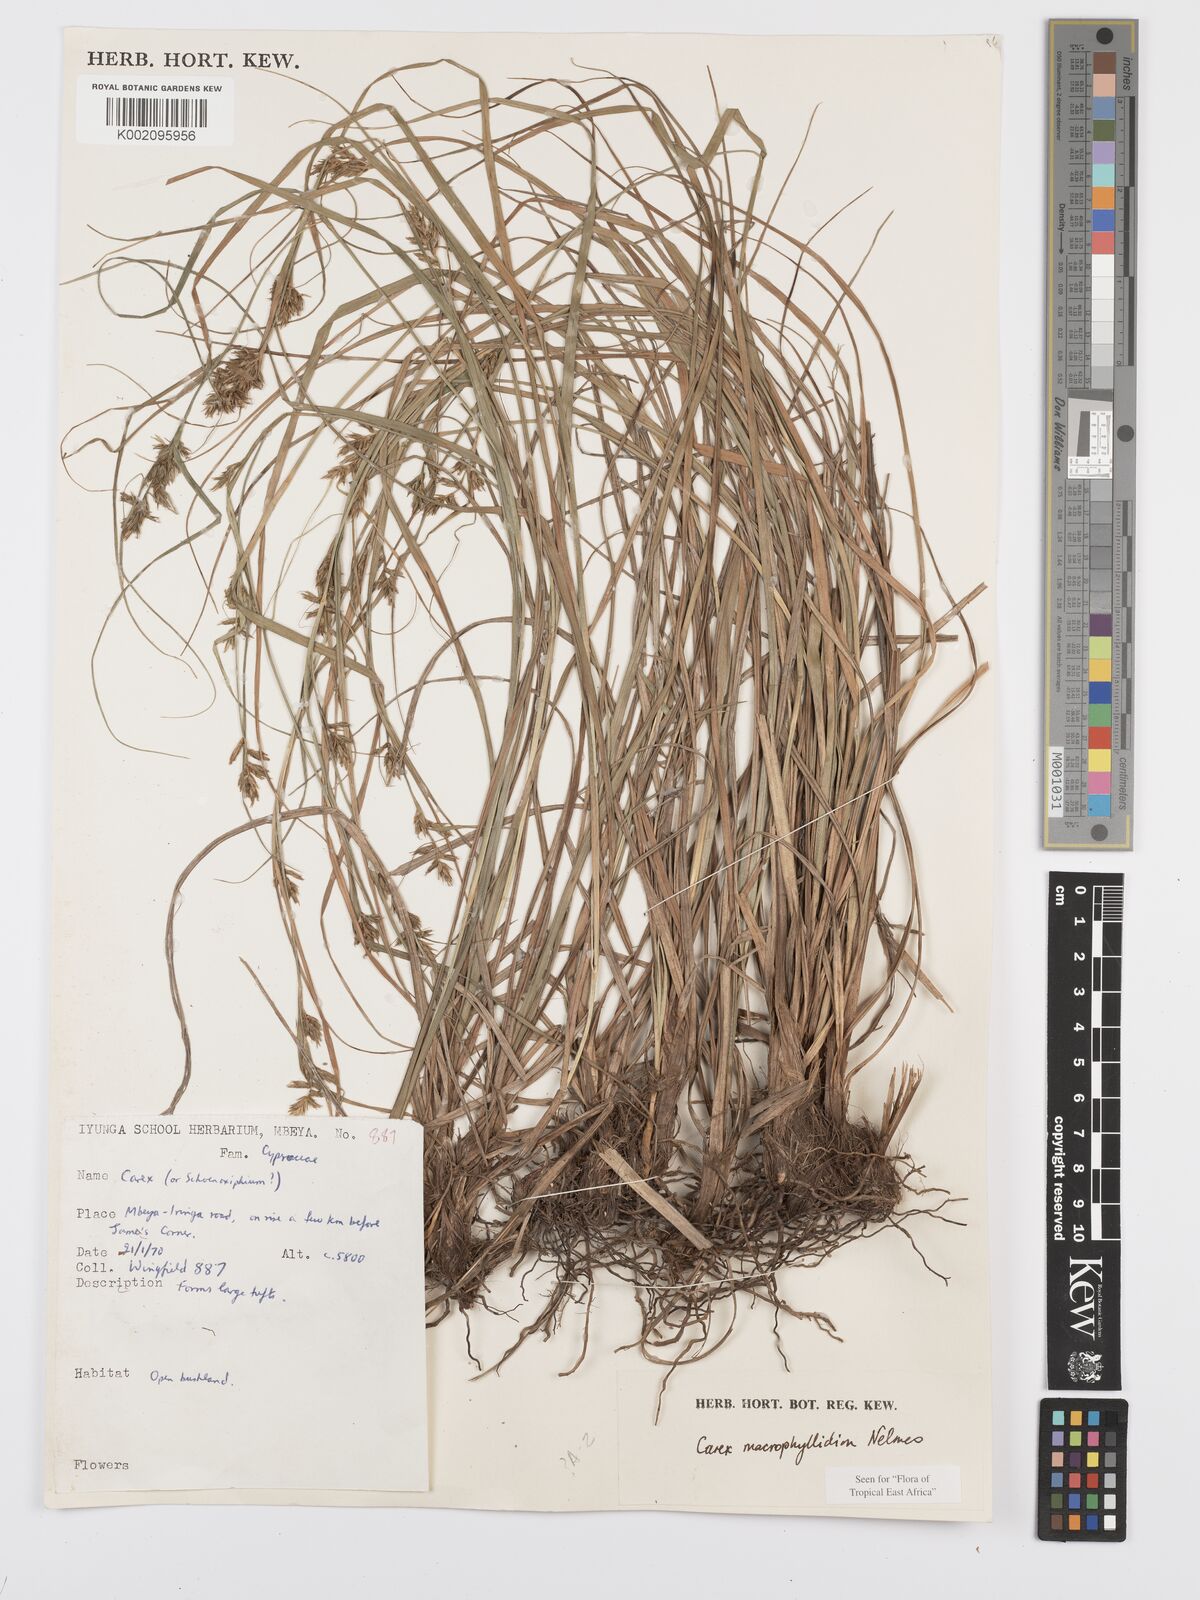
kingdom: Plantae
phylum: Tracheophyta
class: Liliopsida
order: Poales
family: Cyperaceae
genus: Carex
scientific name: Carex macrophyllidion
